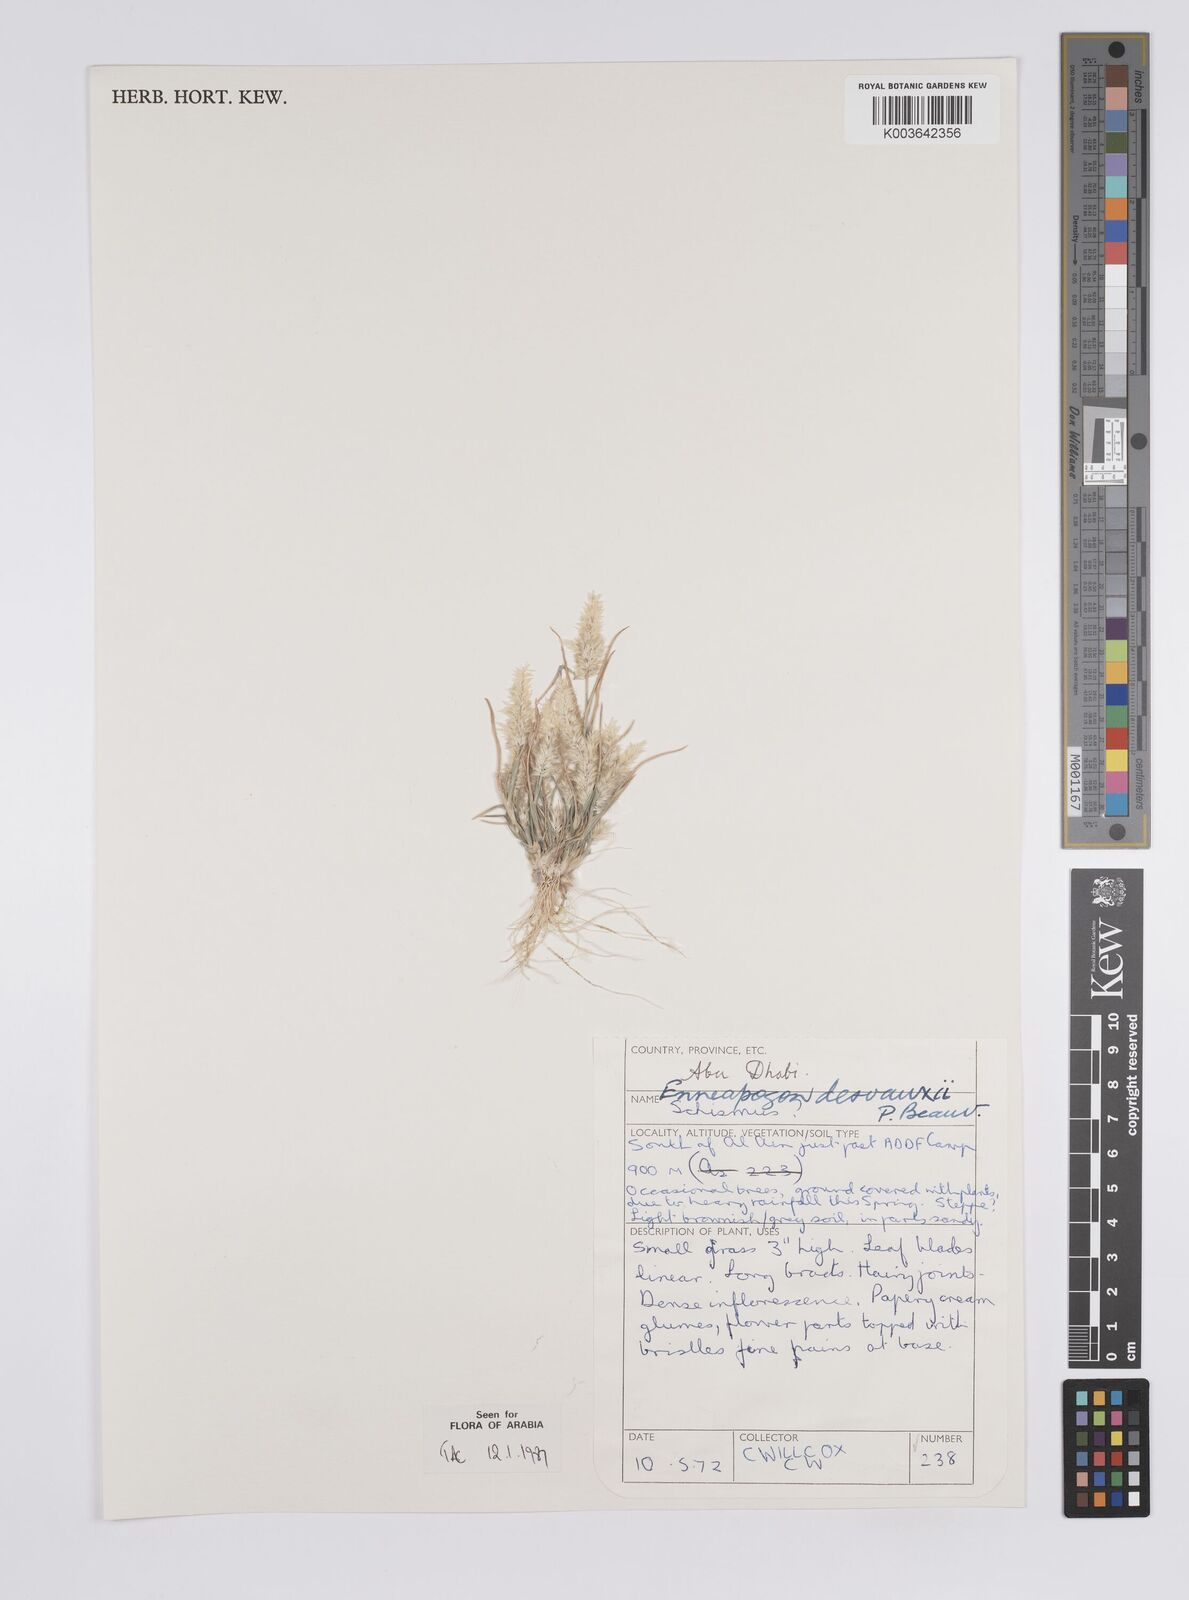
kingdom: Plantae
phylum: Tracheophyta
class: Liliopsida
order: Poales
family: Poaceae
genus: Enneapogon
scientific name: Enneapogon desvauxii
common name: Feather pappus grass
